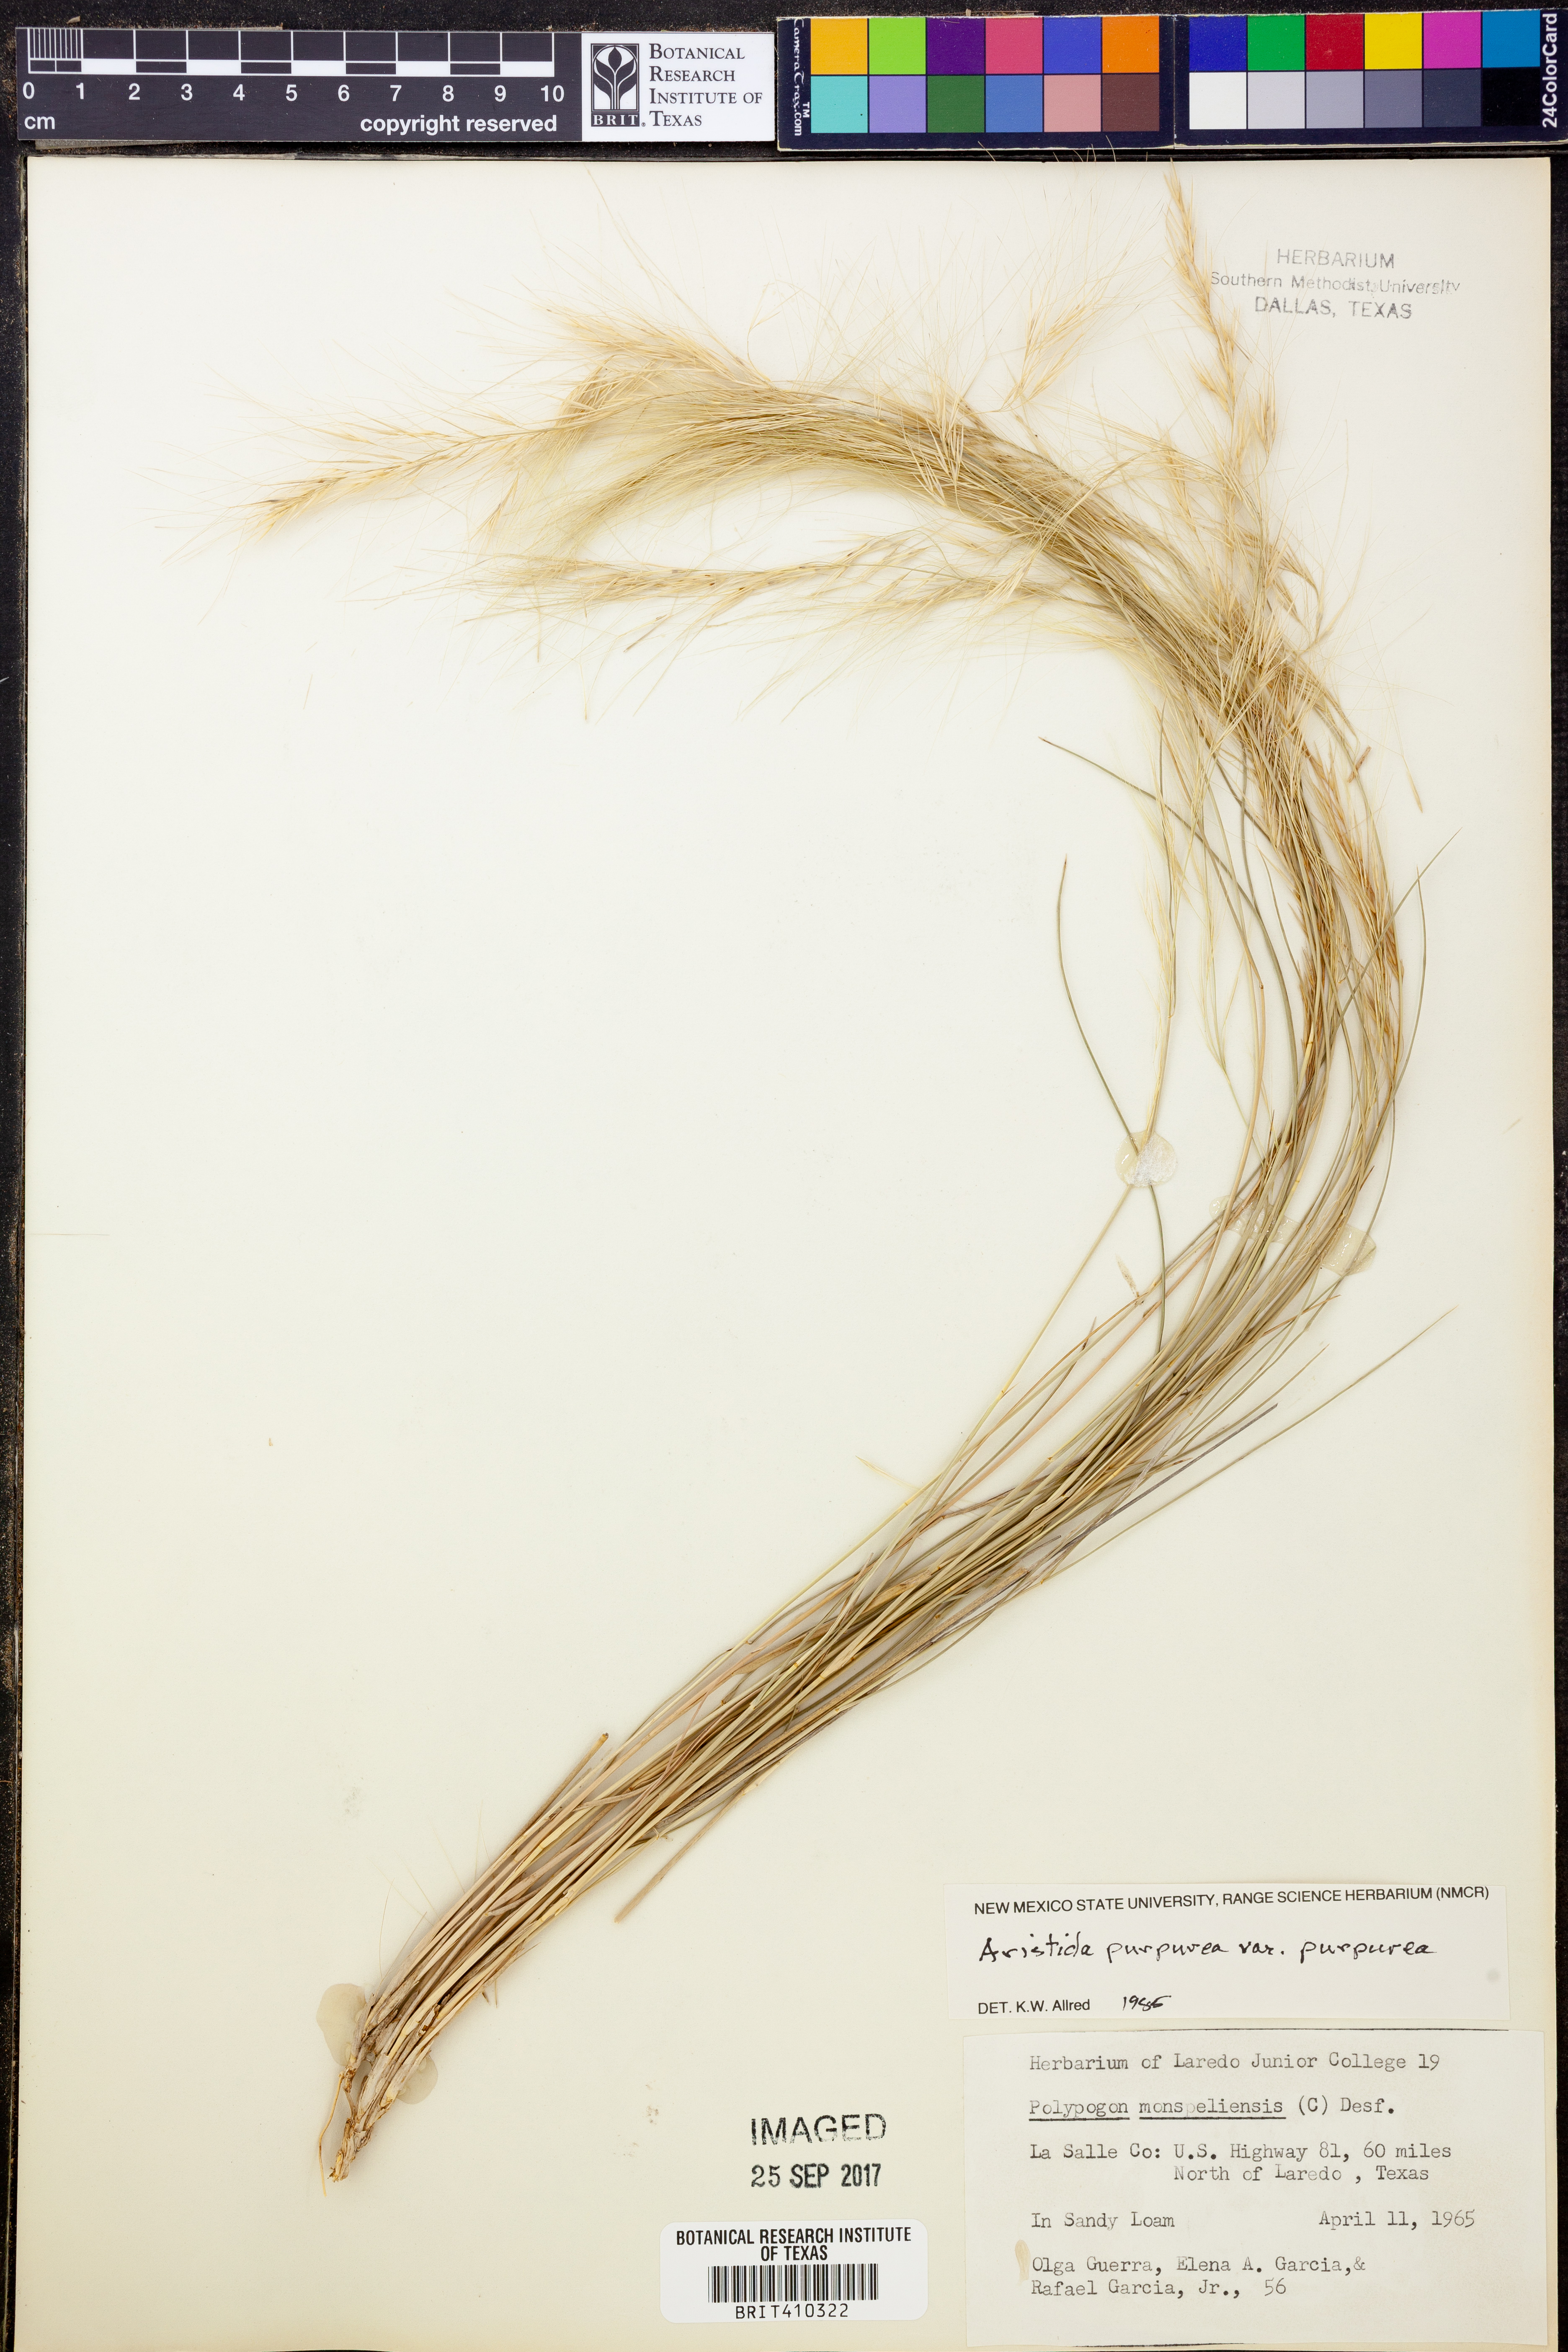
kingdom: Plantae
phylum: Tracheophyta
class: Liliopsida
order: Poales
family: Poaceae
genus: Aristida
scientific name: Aristida purpurea
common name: Purple threeawn
